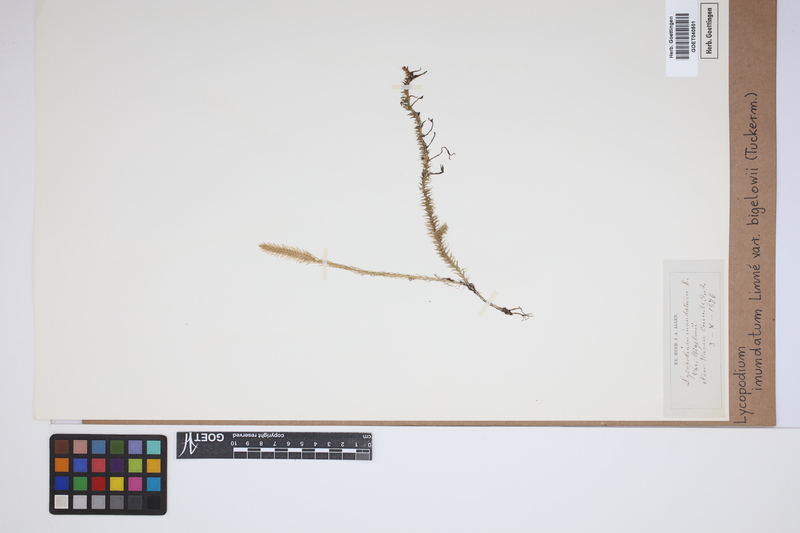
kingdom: Plantae
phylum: Tracheophyta
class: Lycopodiopsida
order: Lycopodiales
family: Lycopodiaceae
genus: Lycopodiella
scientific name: Lycopodiella inundata
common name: Marsh clubmoss
